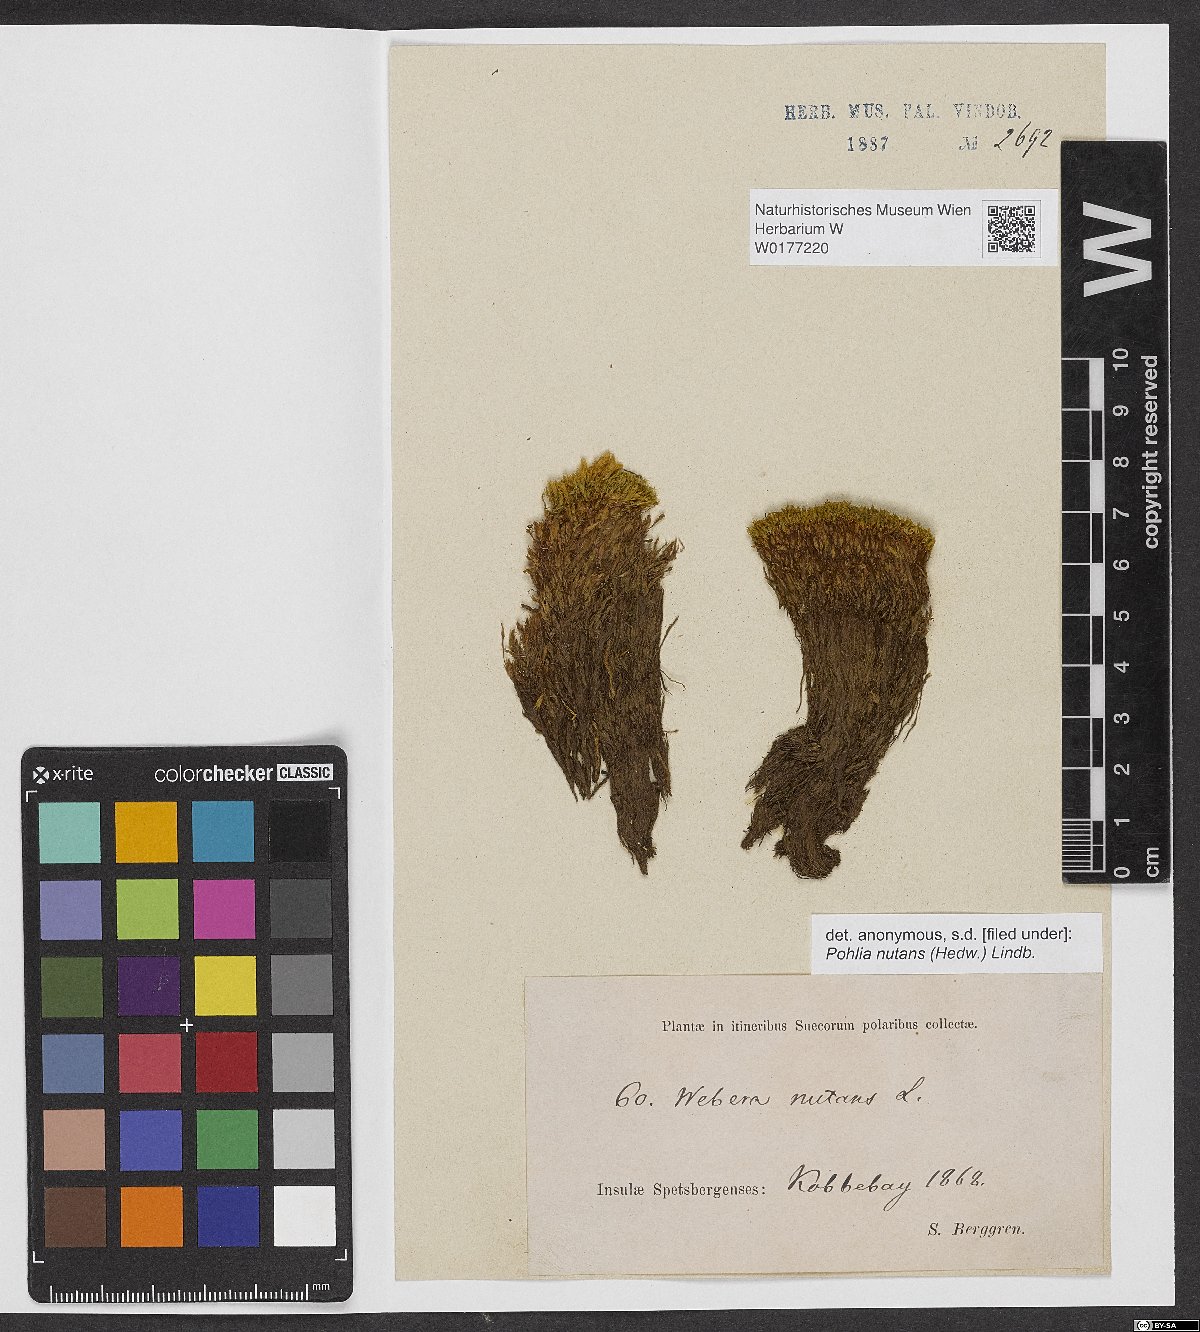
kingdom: Plantae
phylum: Bryophyta
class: Bryopsida
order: Bryales
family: Mniaceae
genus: Pohlia
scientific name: Pohlia nutans
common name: Nodding thread-moss
